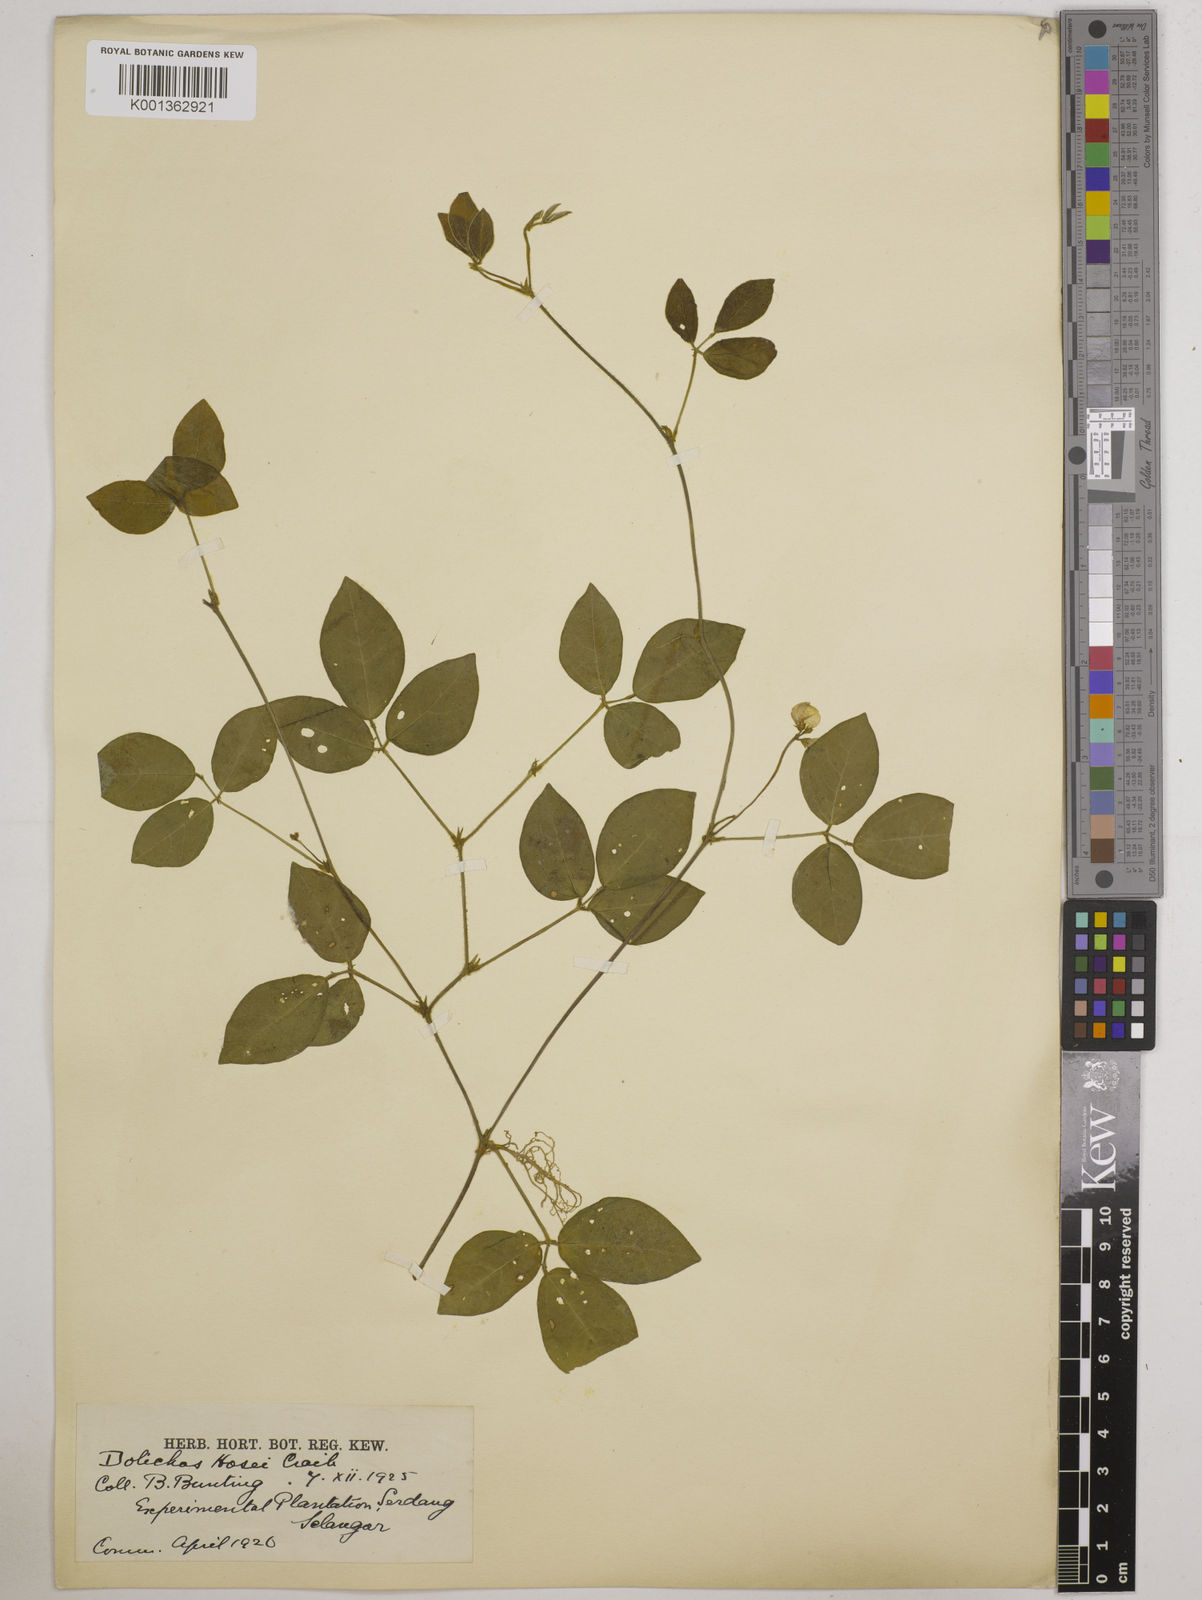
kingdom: Plantae
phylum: Tracheophyta
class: Magnoliopsida
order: Fabales
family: Fabaceae
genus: Vigna
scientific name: Vigna hosei
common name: Sarawak-bean
